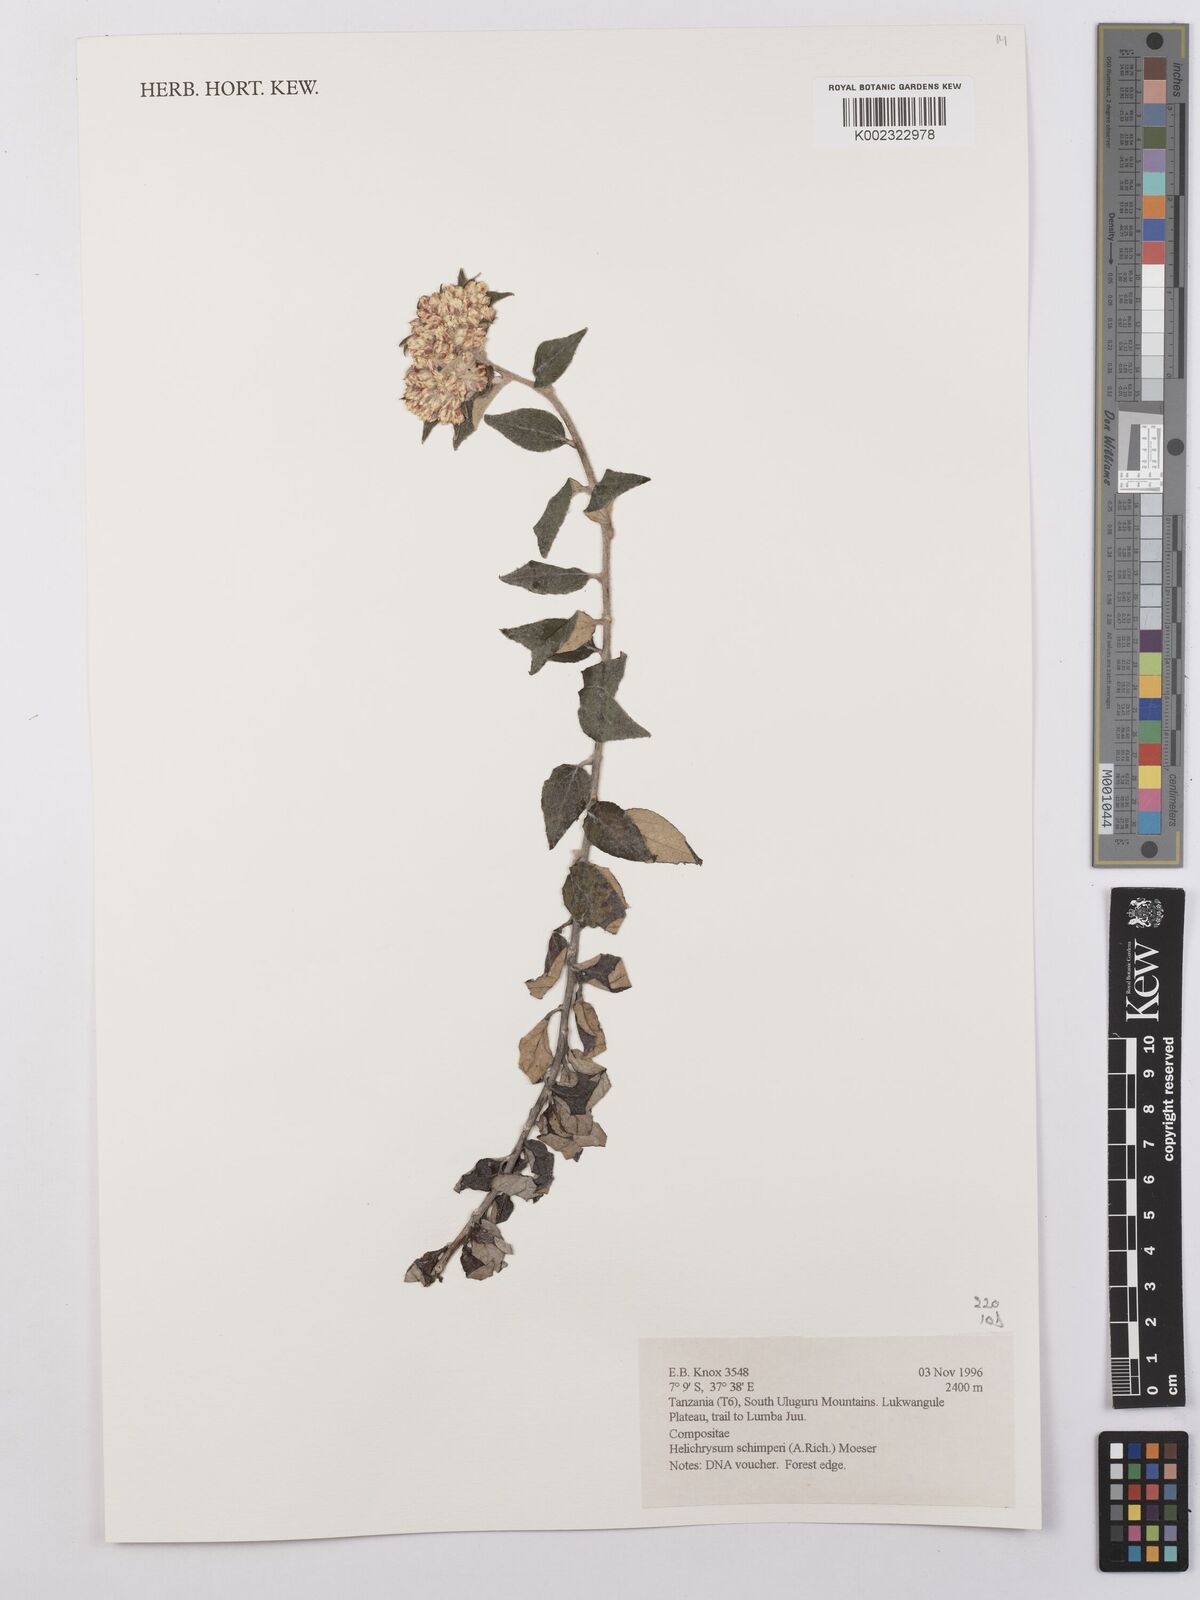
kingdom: Plantae
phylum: Tracheophyta
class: Magnoliopsida
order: Asterales
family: Asteraceae
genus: Helichrysum
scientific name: Helichrysum schimperi
